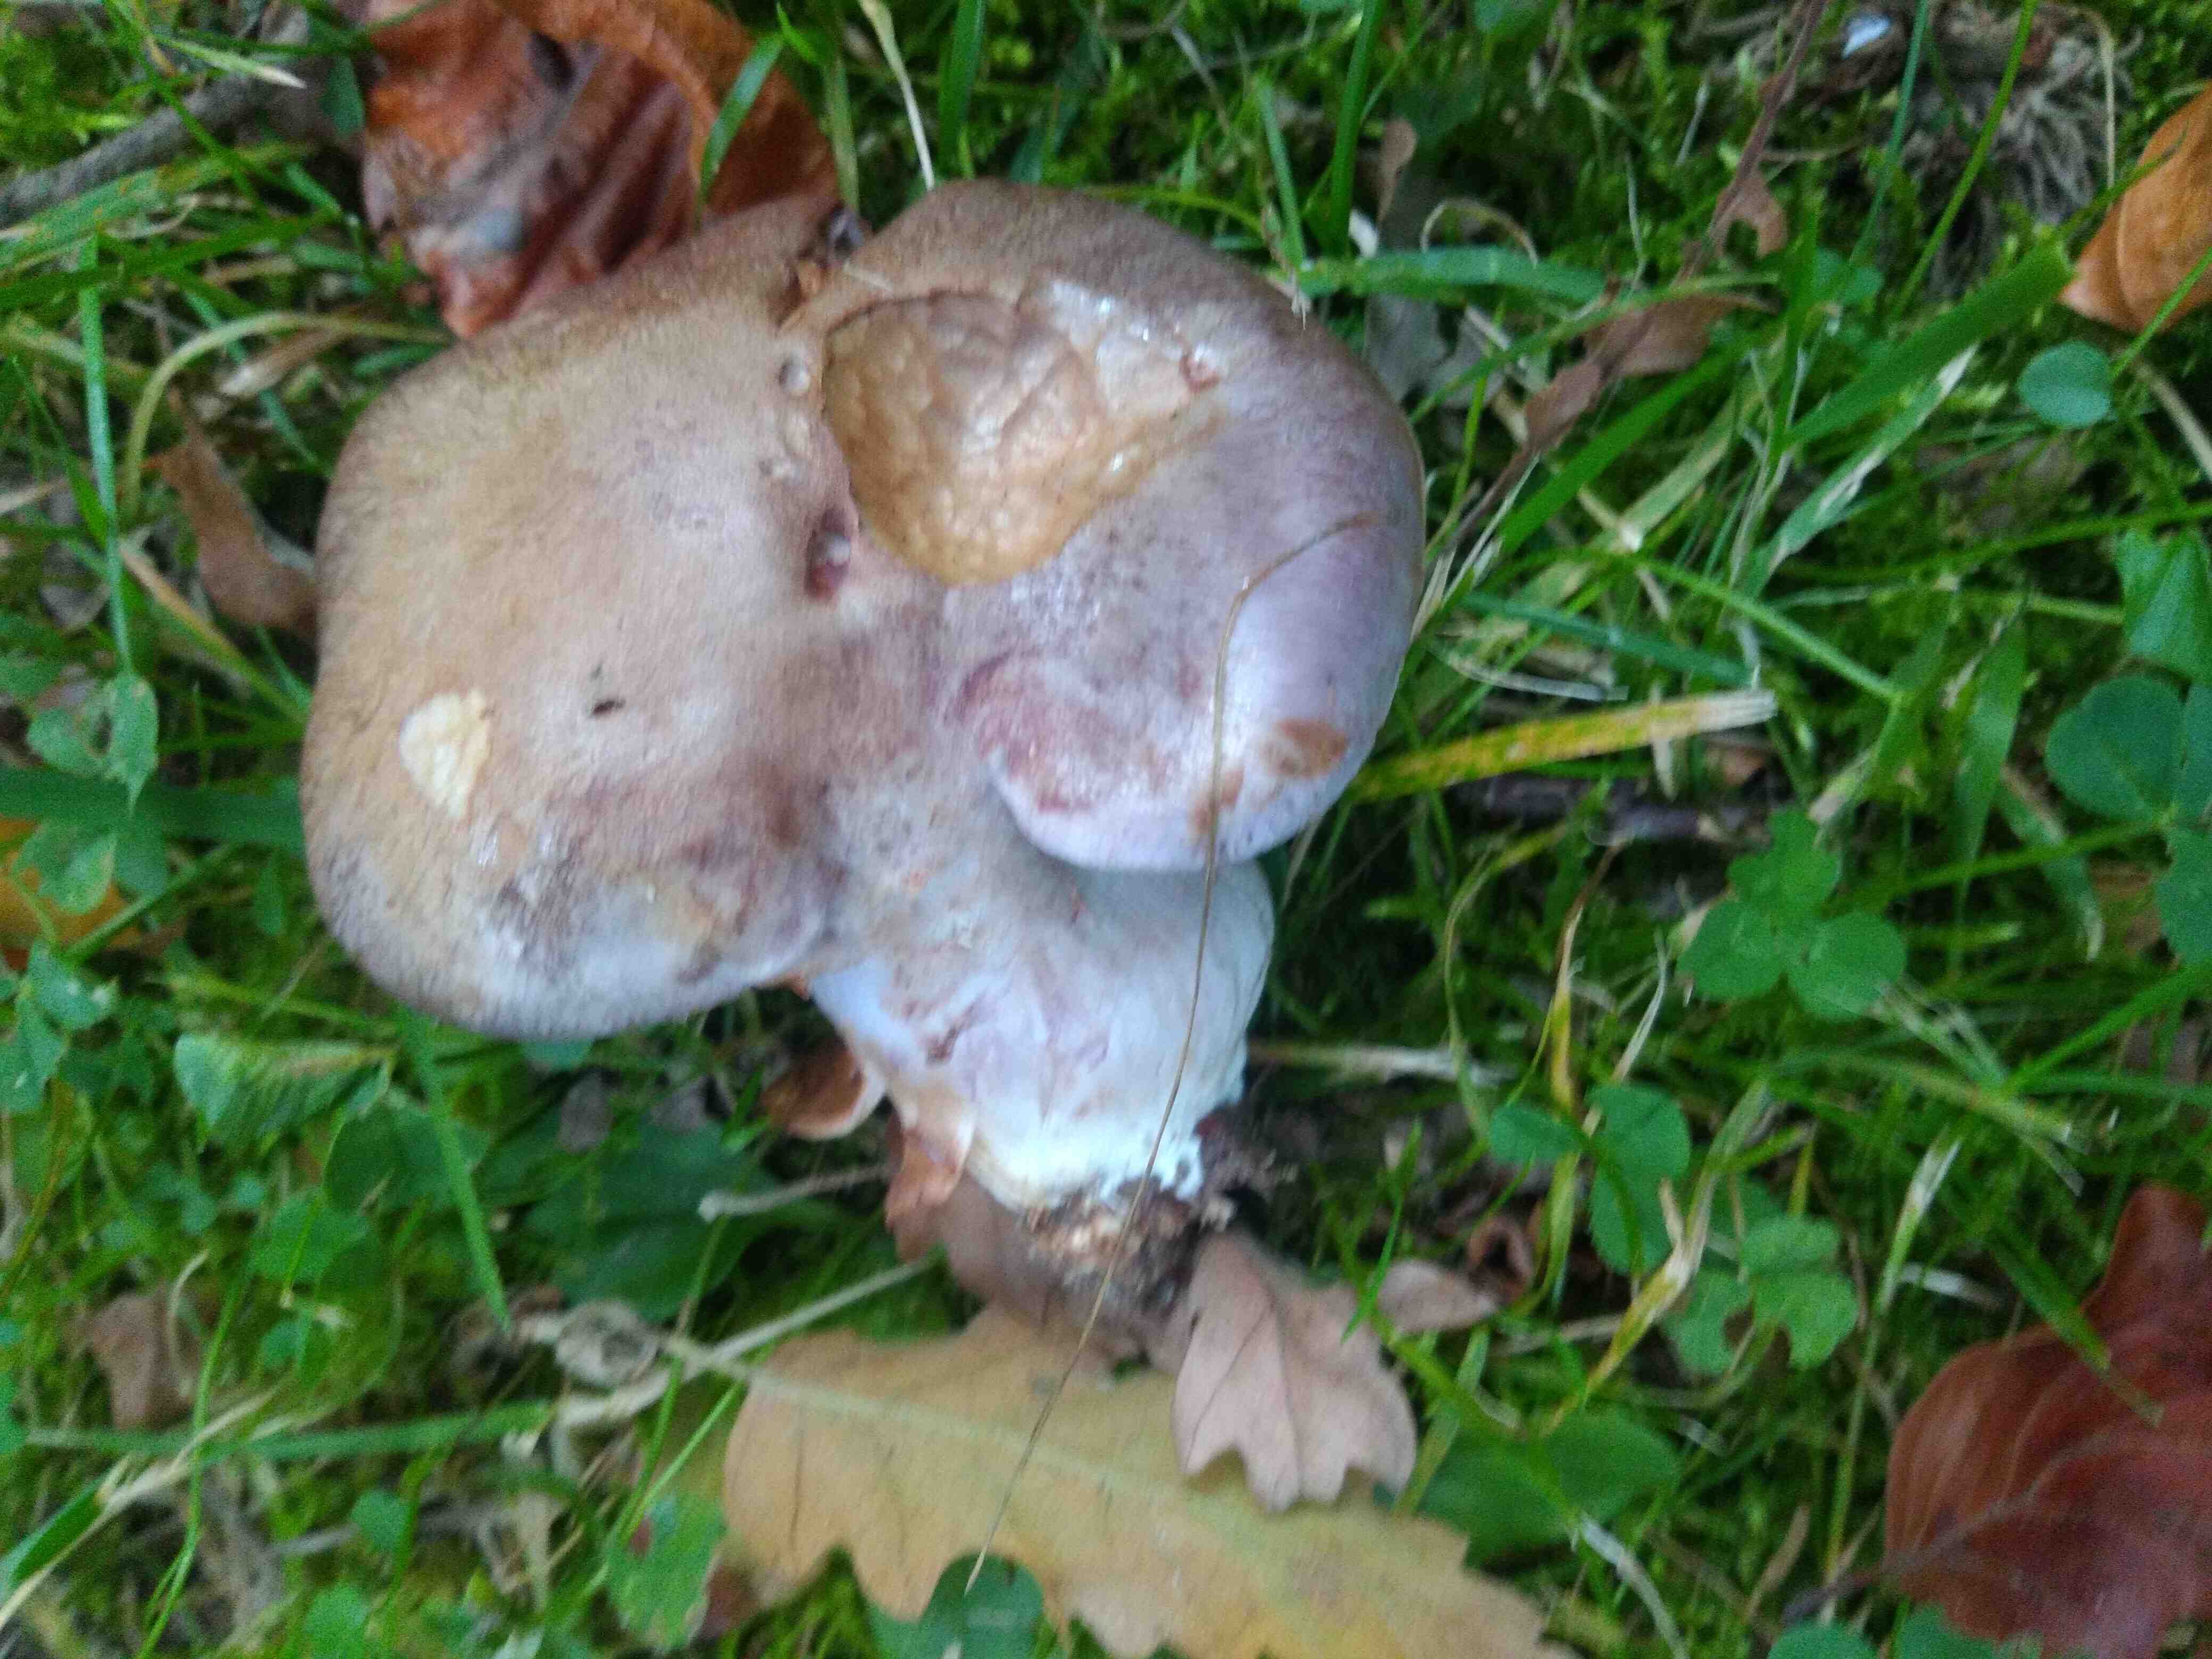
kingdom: Fungi
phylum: Basidiomycota
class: Agaricomycetes
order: Agaricales
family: Cortinariaceae
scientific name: Cortinariaceae
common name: slørhatfamilien
